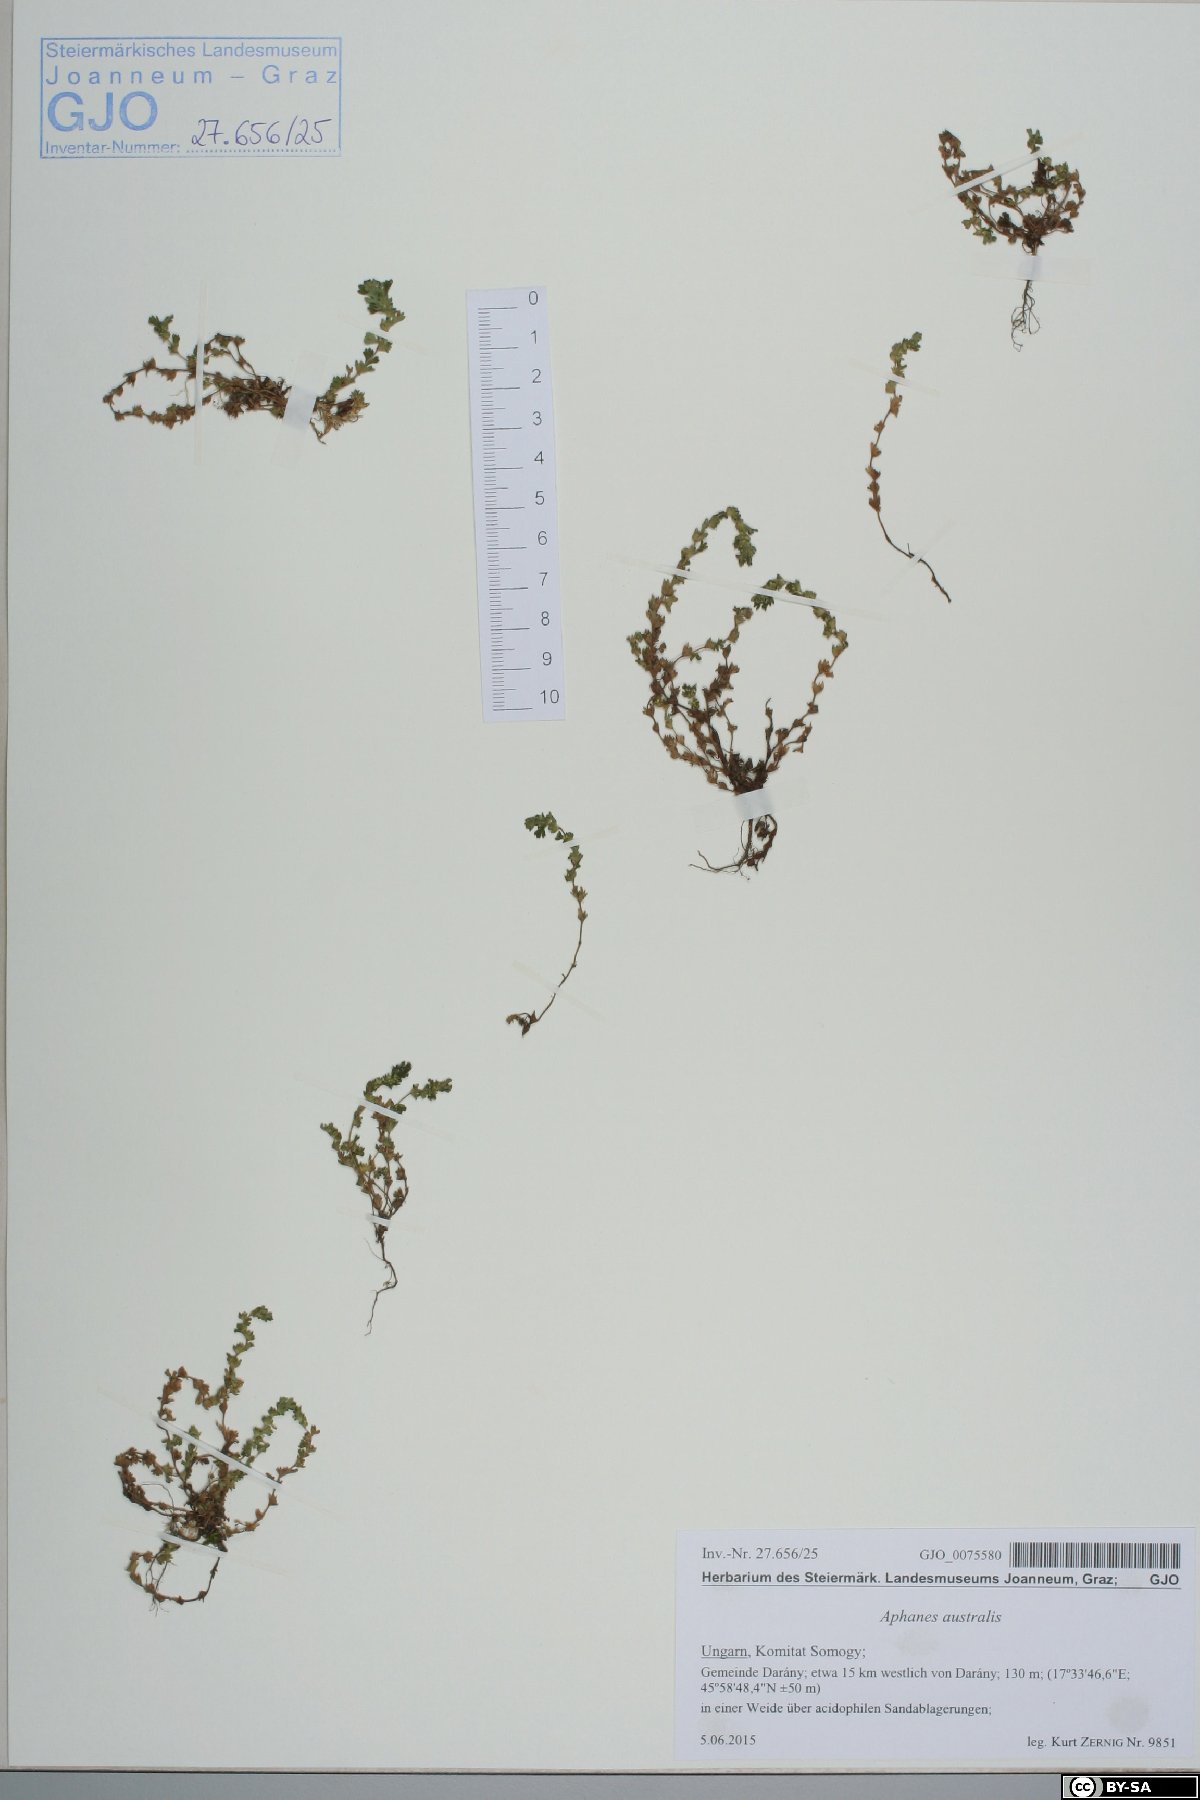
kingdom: Plantae
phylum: Tracheophyta
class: Magnoliopsida
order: Rosales
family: Rosaceae
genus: Aphanes
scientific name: Aphanes australis
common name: Slender parsley-piert
